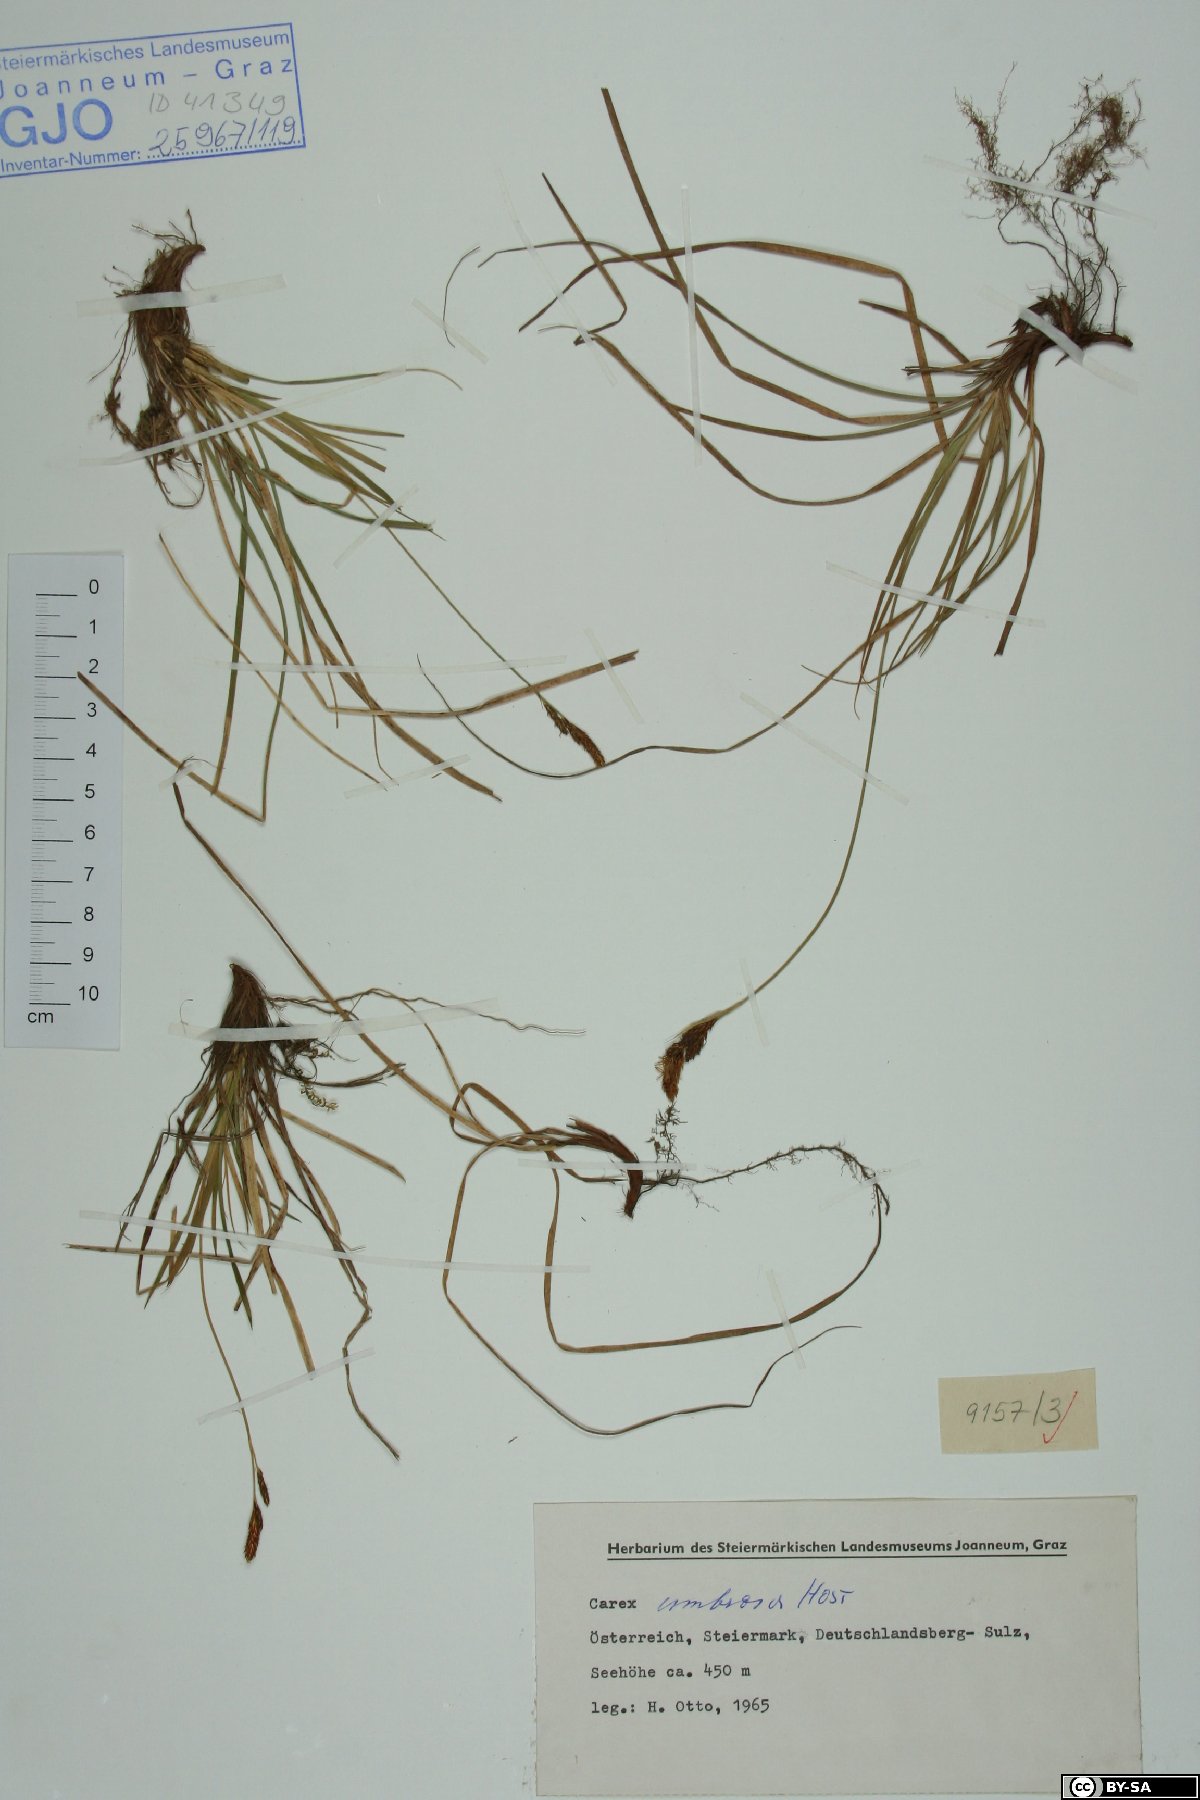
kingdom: Plantae
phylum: Tracheophyta
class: Liliopsida
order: Poales
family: Cyperaceae
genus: Carex
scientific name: Carex umbrosa
